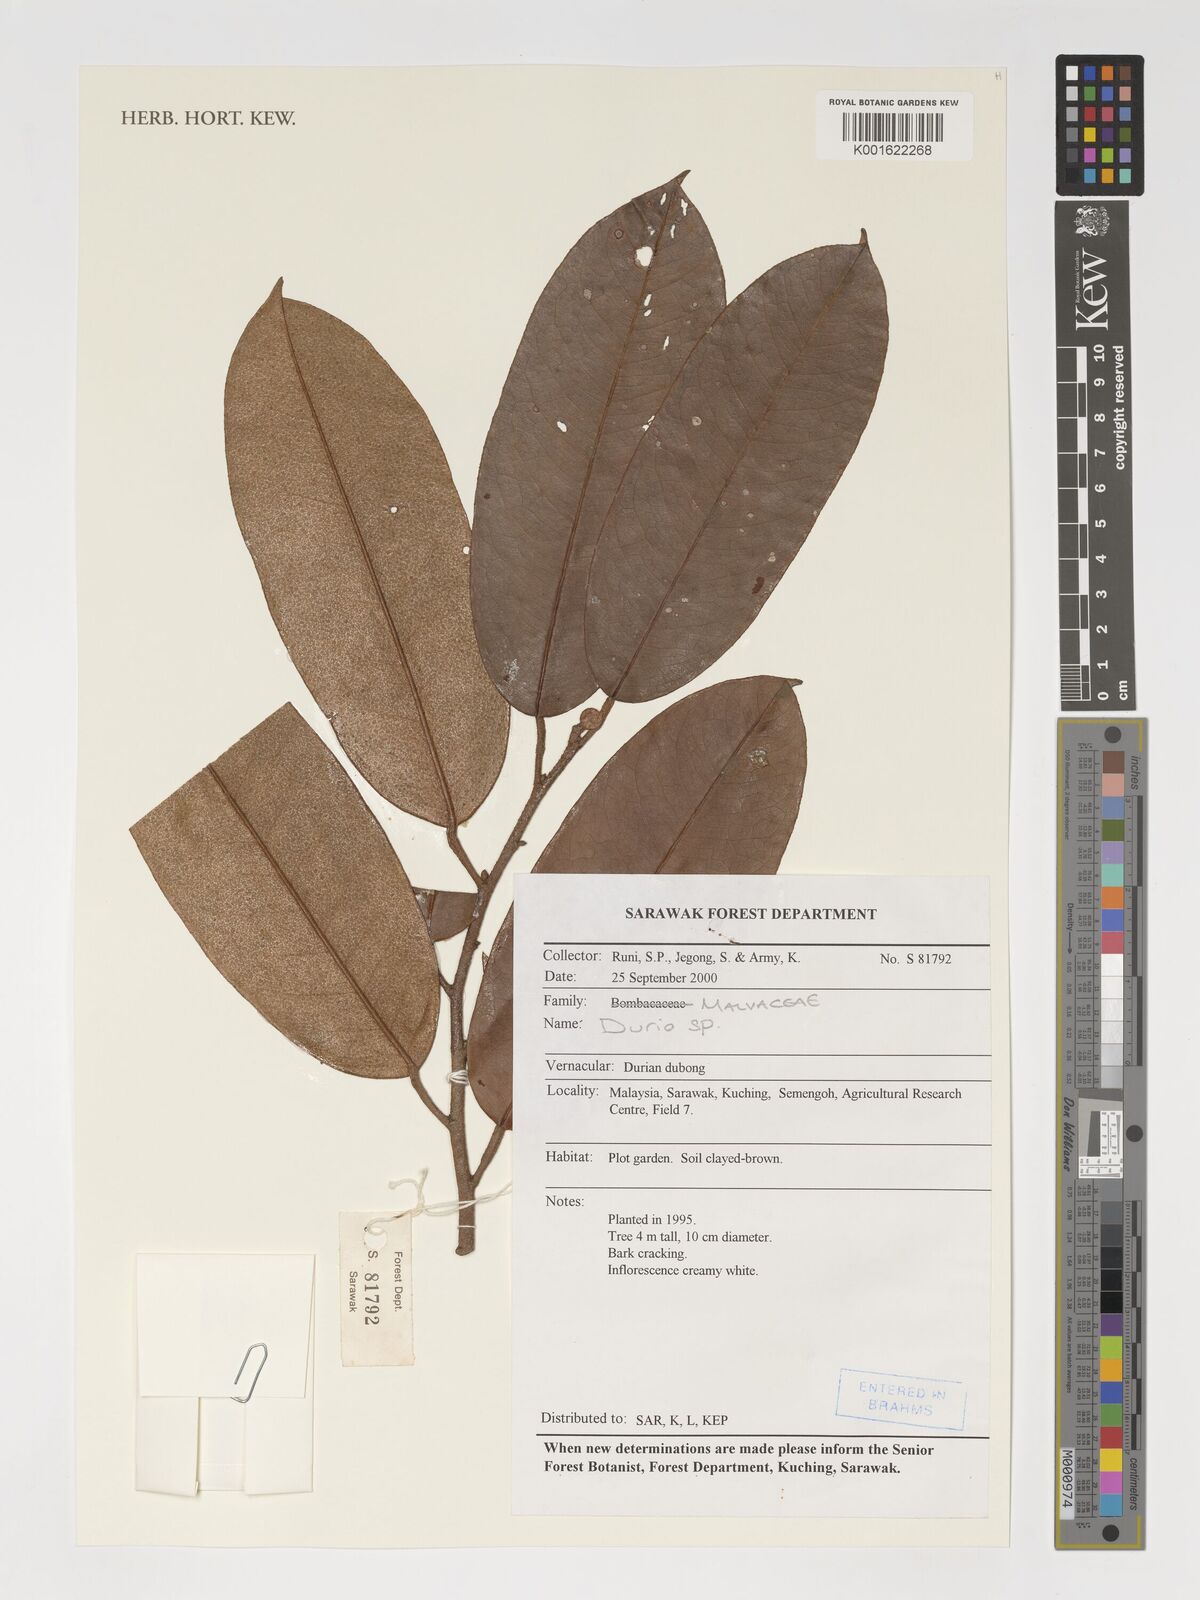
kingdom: Plantae
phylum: Tracheophyta
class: Magnoliopsida
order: Malvales
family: Malvaceae
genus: Durio
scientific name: Durio
